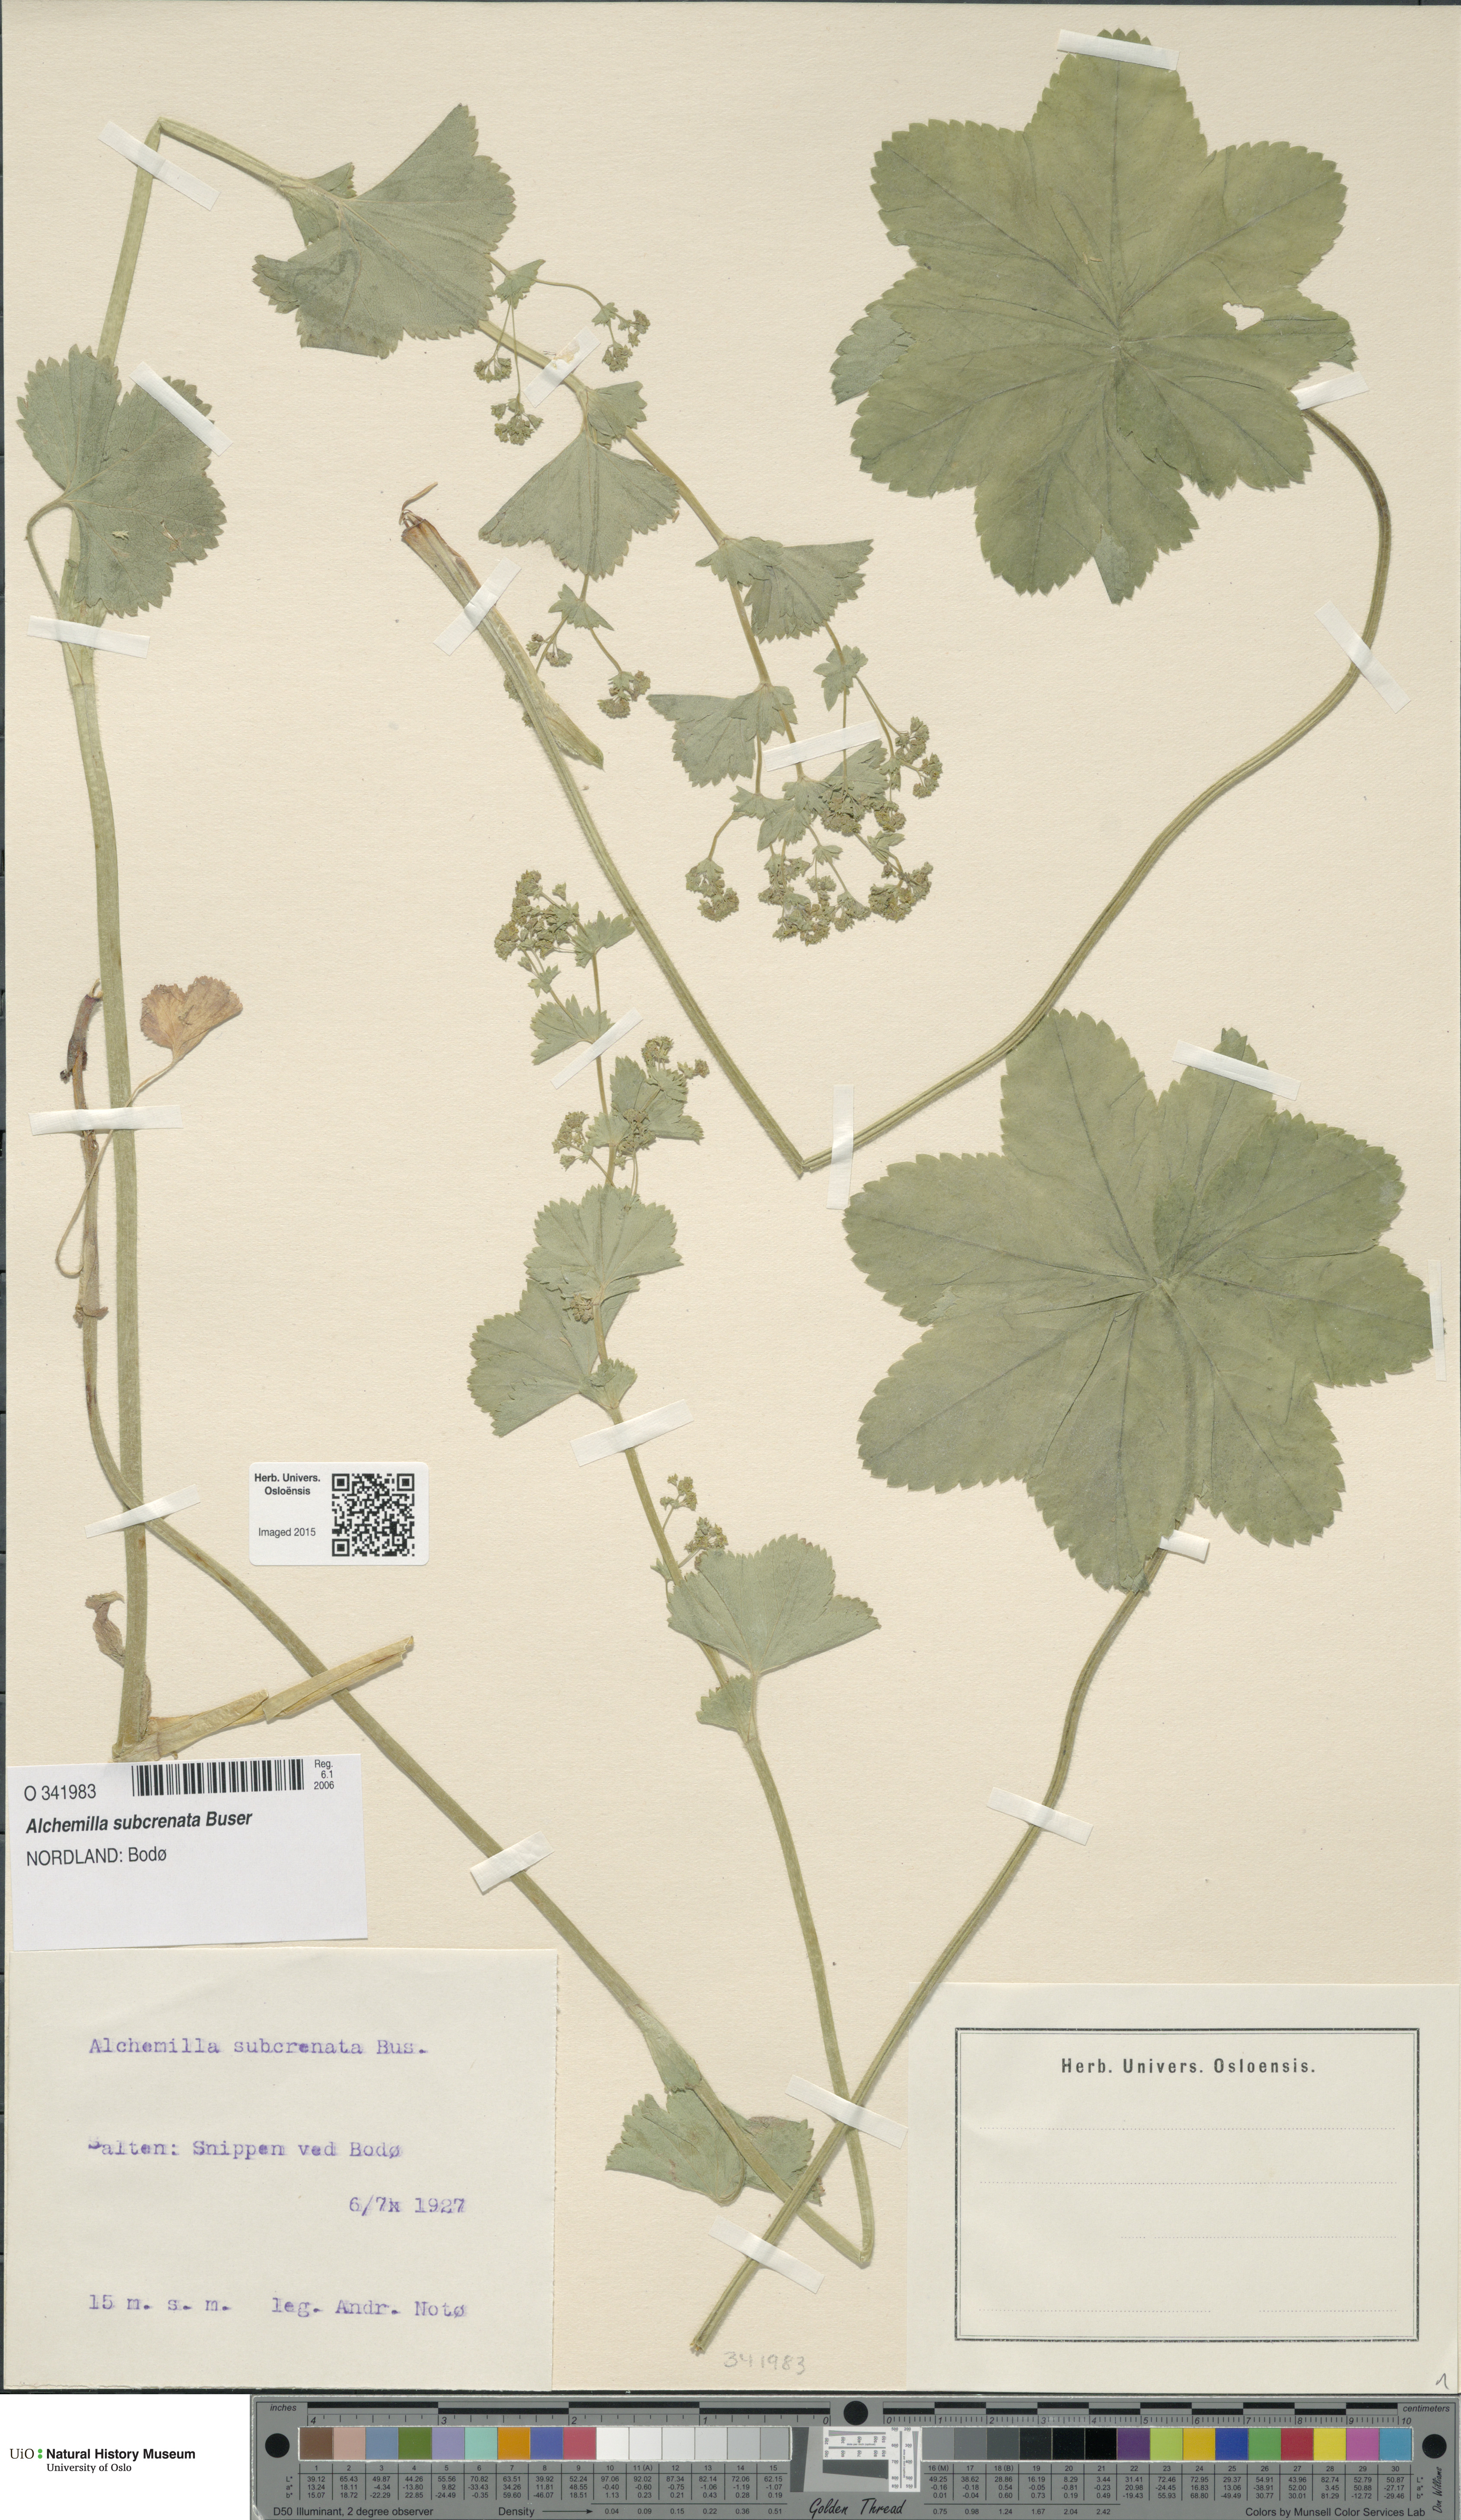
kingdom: Plantae
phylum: Tracheophyta
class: Magnoliopsida
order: Rosales
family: Rosaceae
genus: Alchemilla
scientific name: Alchemilla subcrenata
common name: Broadtooth lady's mantle
